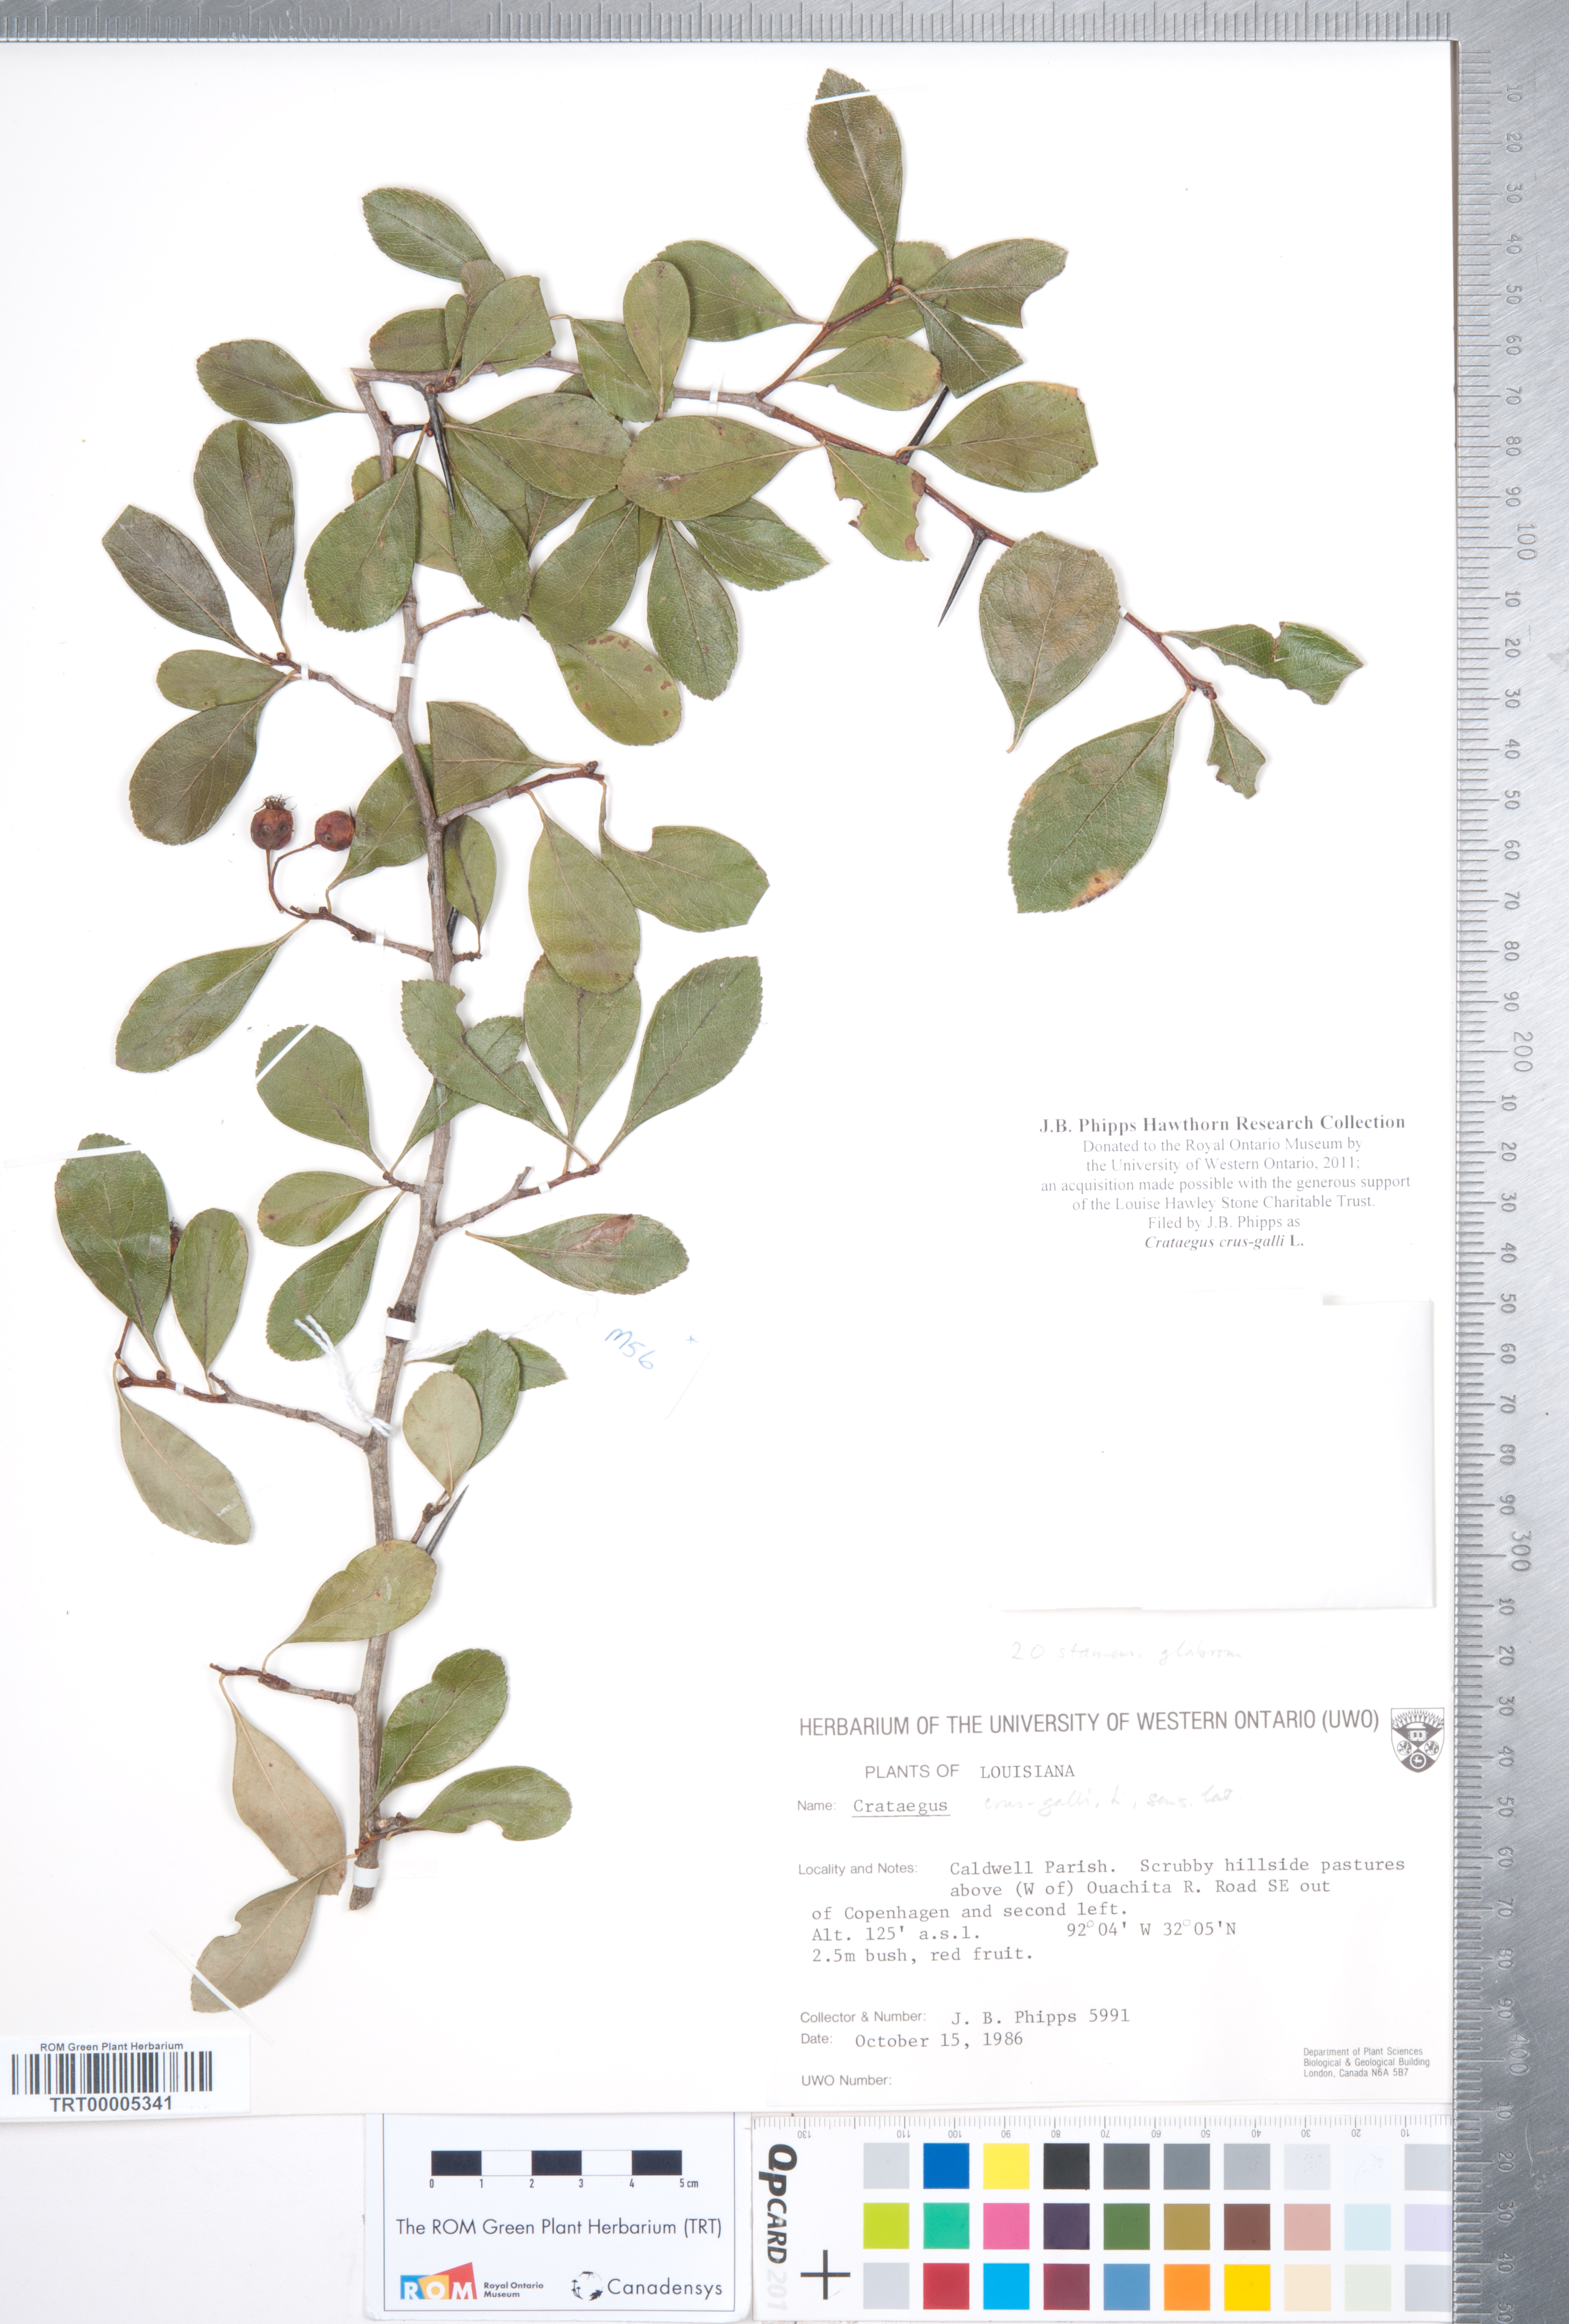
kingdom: Plantae
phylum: Tracheophyta
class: Magnoliopsida
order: Rosales
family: Rosaceae
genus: Crataegus
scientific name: Crataegus crus-galli
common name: Cockspurthorn
